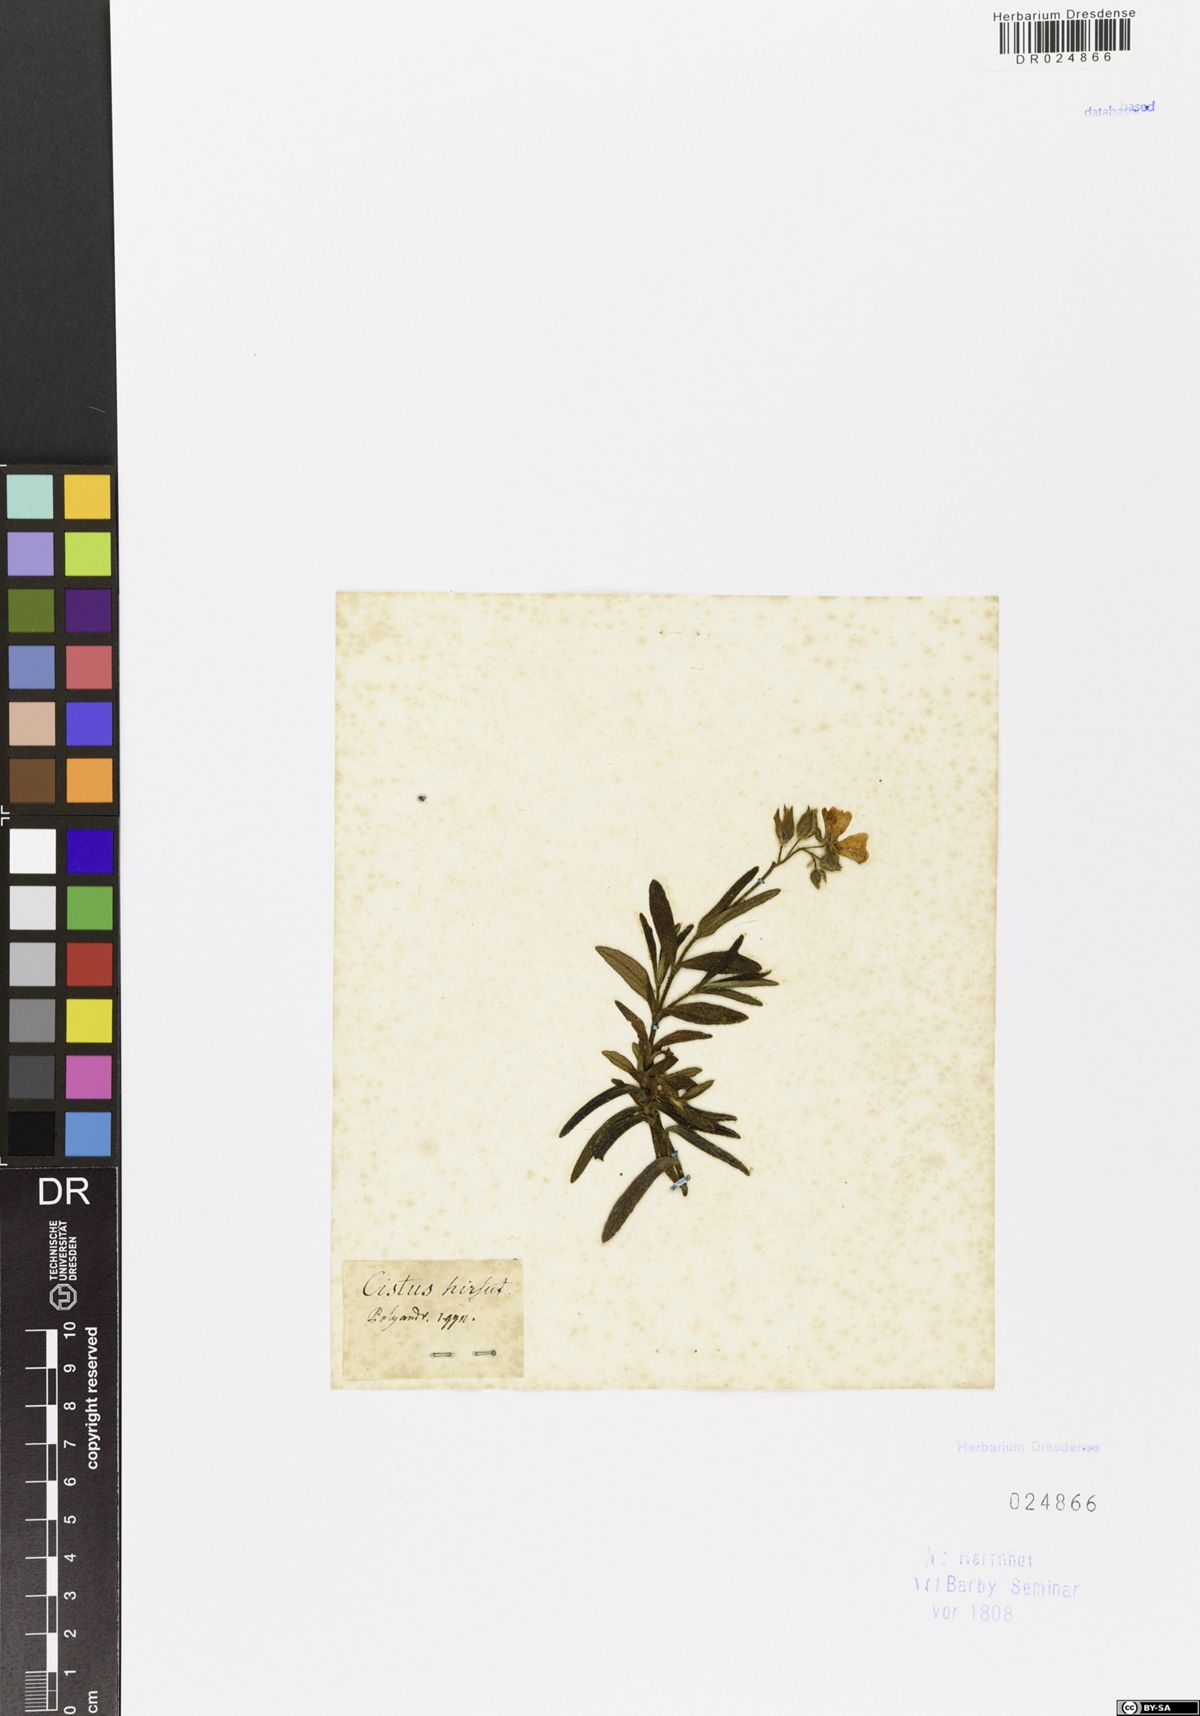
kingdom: Plantae
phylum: Tracheophyta
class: Magnoliopsida
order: Malvales
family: Cistaceae
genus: Cistus
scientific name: Cistus
